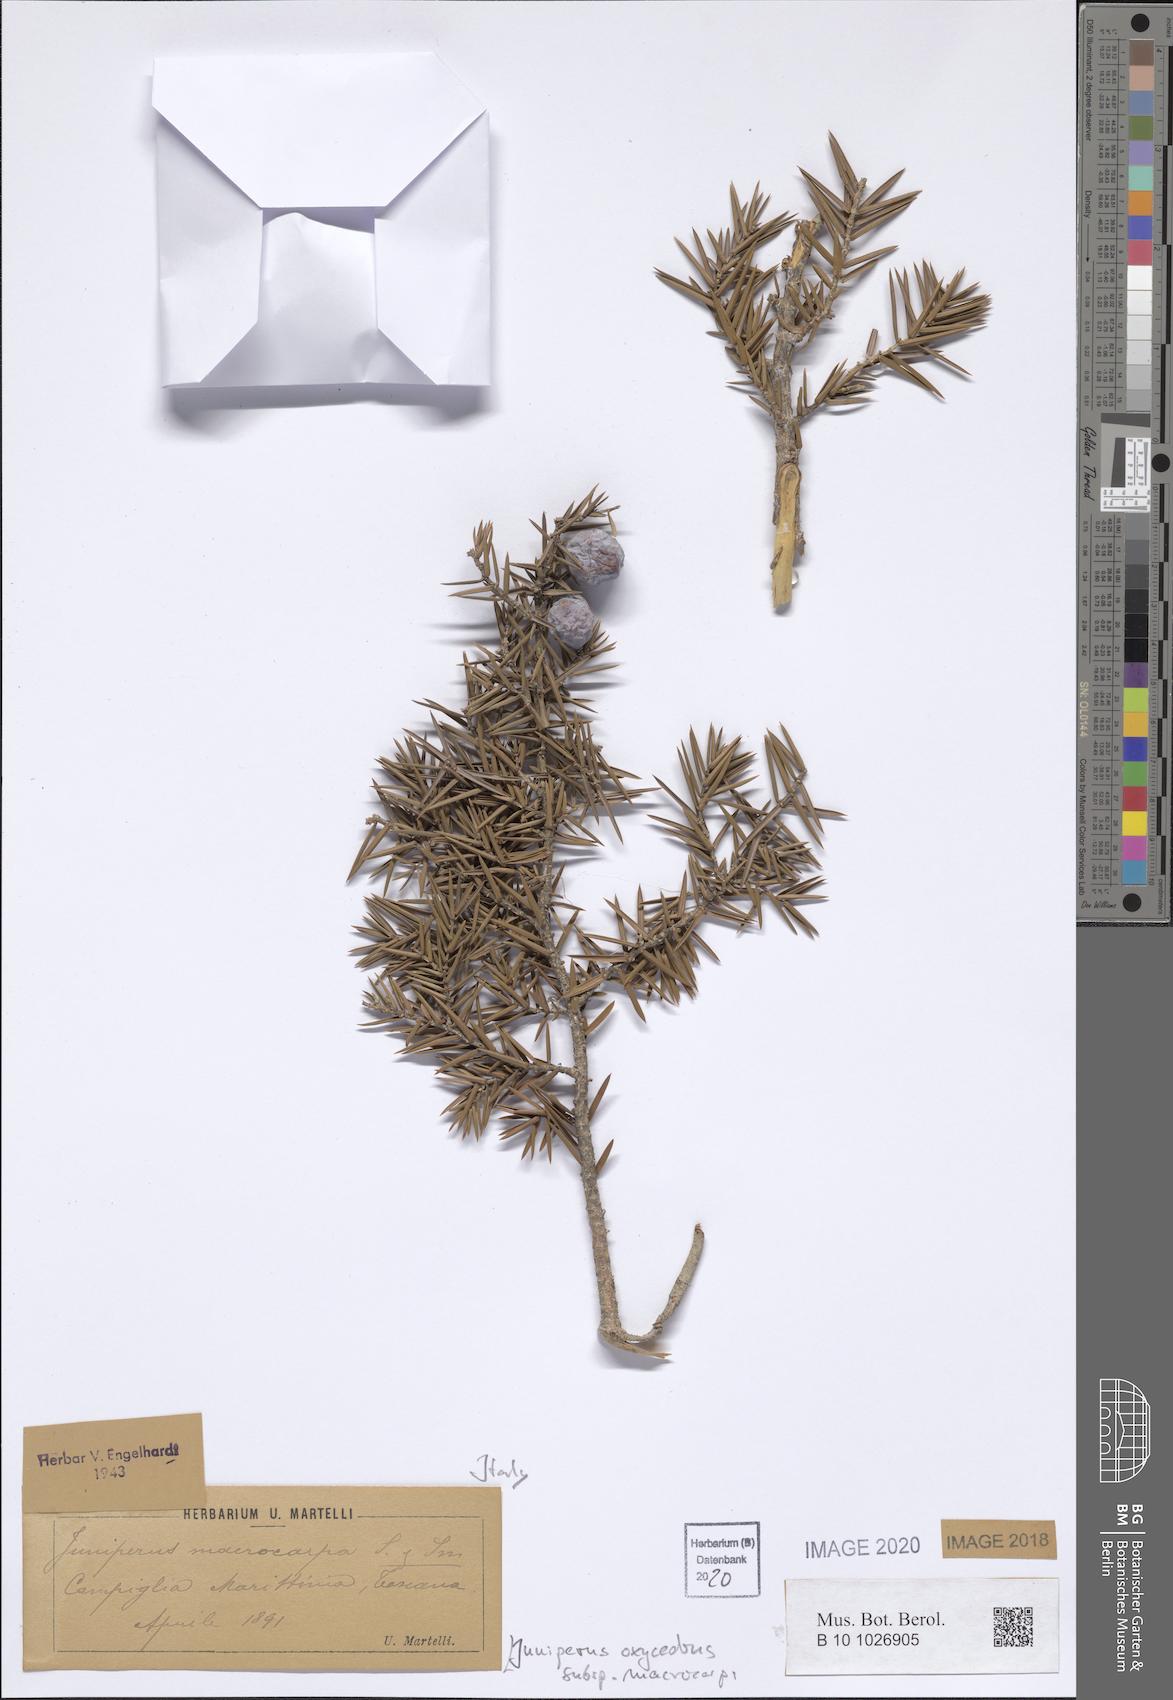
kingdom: Plantae
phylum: Tracheophyta
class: Pinopsida
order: Pinales
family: Cupressaceae
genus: Juniperus
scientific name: Juniperus oxycedrus
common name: Prickly juniper
